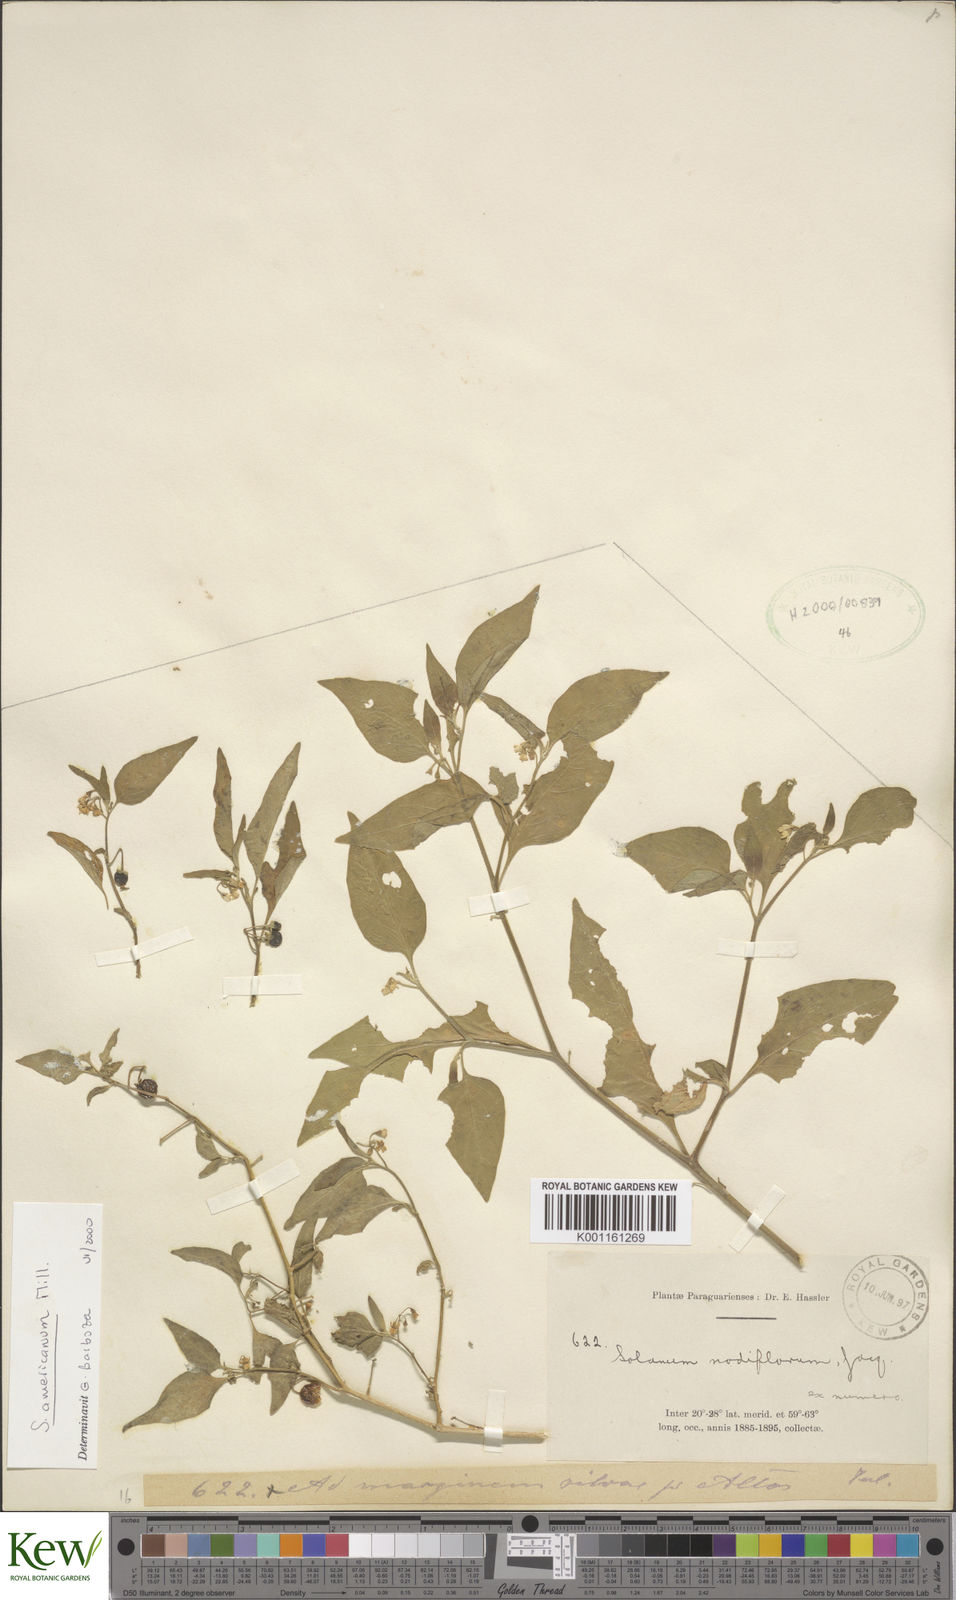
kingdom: Plantae
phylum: Tracheophyta
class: Magnoliopsida
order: Solanales
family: Solanaceae
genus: Solanum
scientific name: Solanum americanum
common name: American black nightshade
